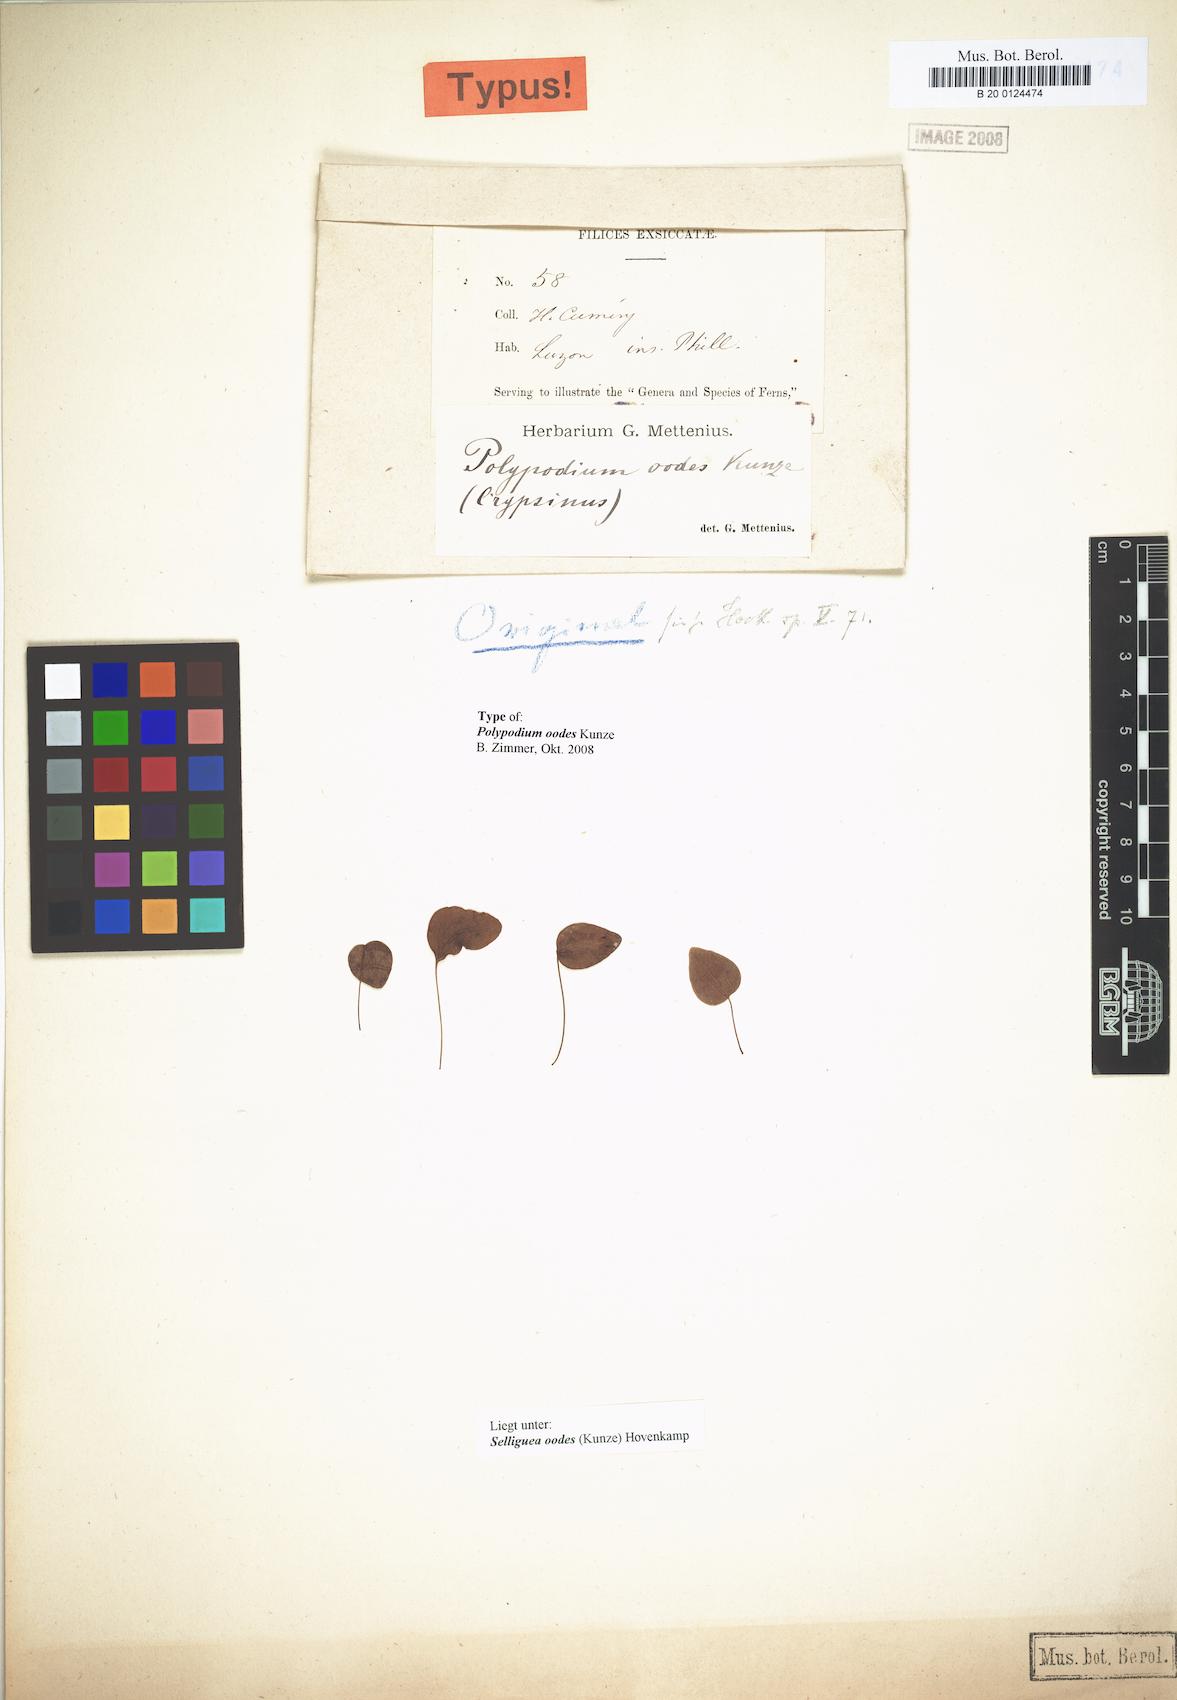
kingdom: Plantae
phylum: Tracheophyta
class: Polypodiopsida
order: Polypodiales
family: Polypodiaceae
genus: Selliguea
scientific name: Selliguea oodes
